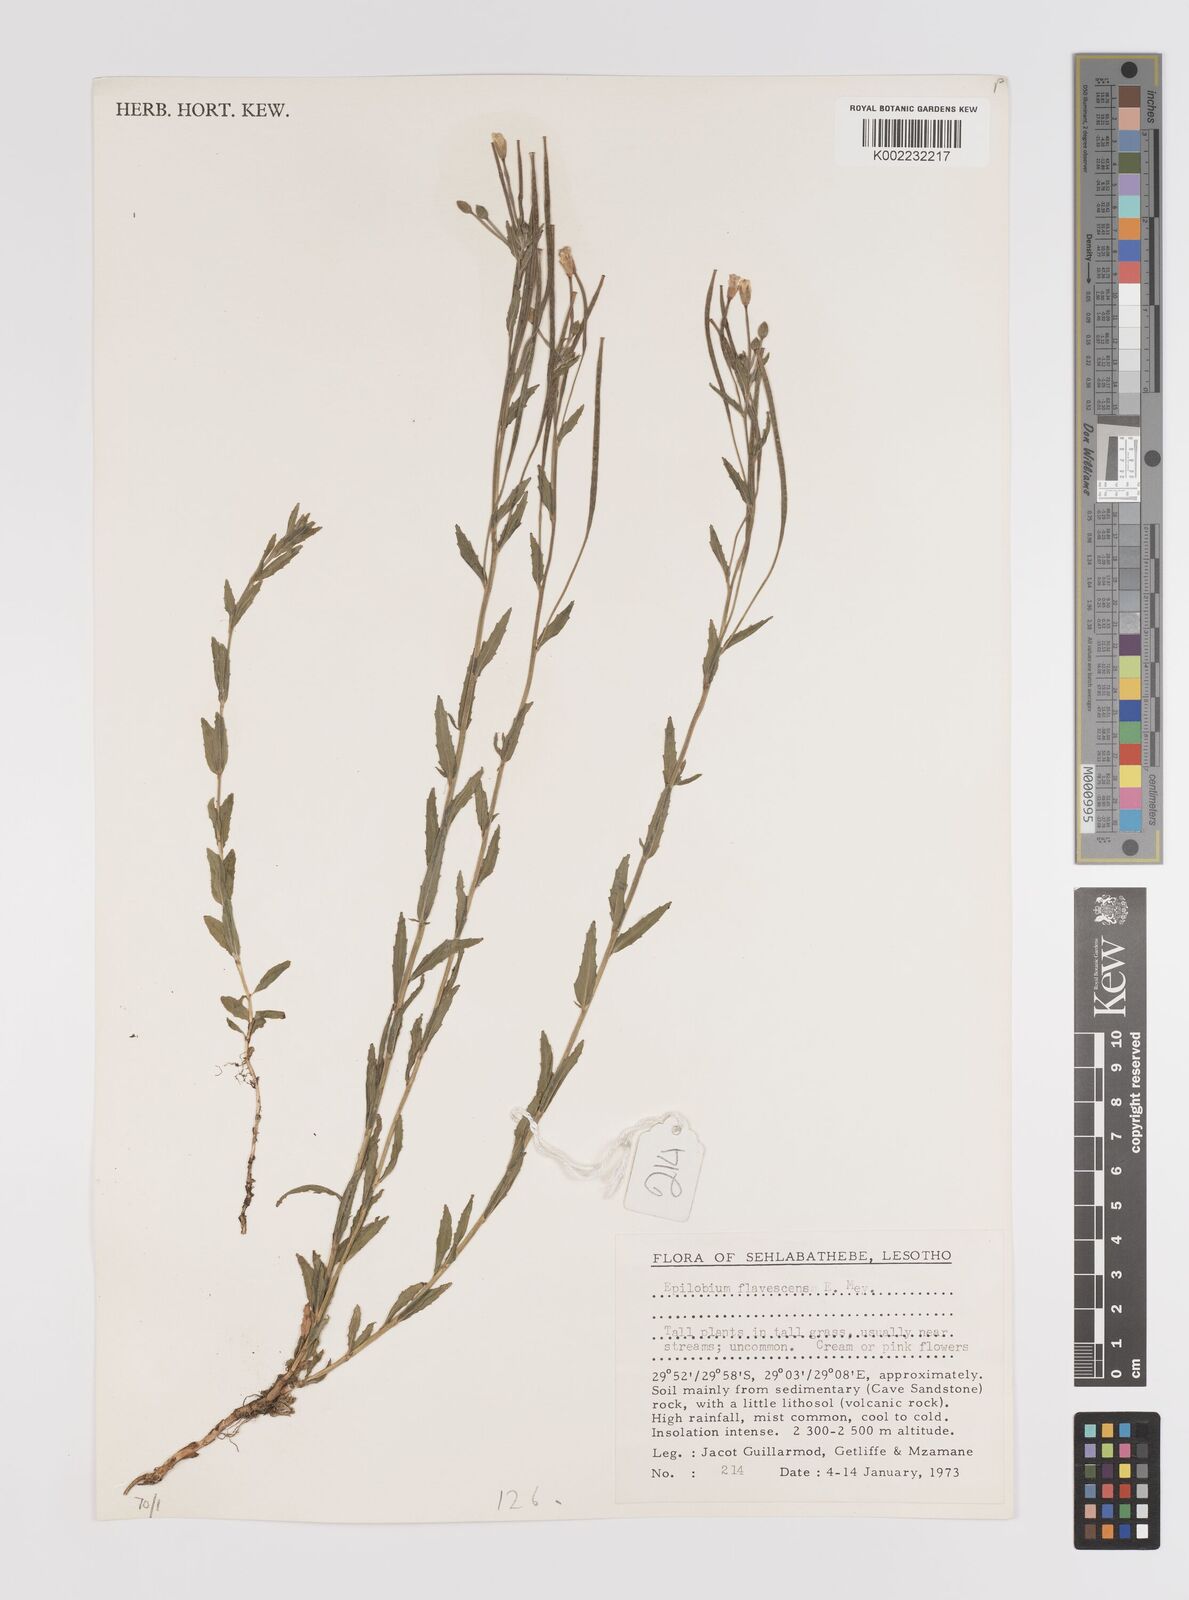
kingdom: Plantae
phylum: Tracheophyta
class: Magnoliopsida
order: Myrtales
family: Onagraceae
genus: Epilobium
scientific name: Epilobium capense
